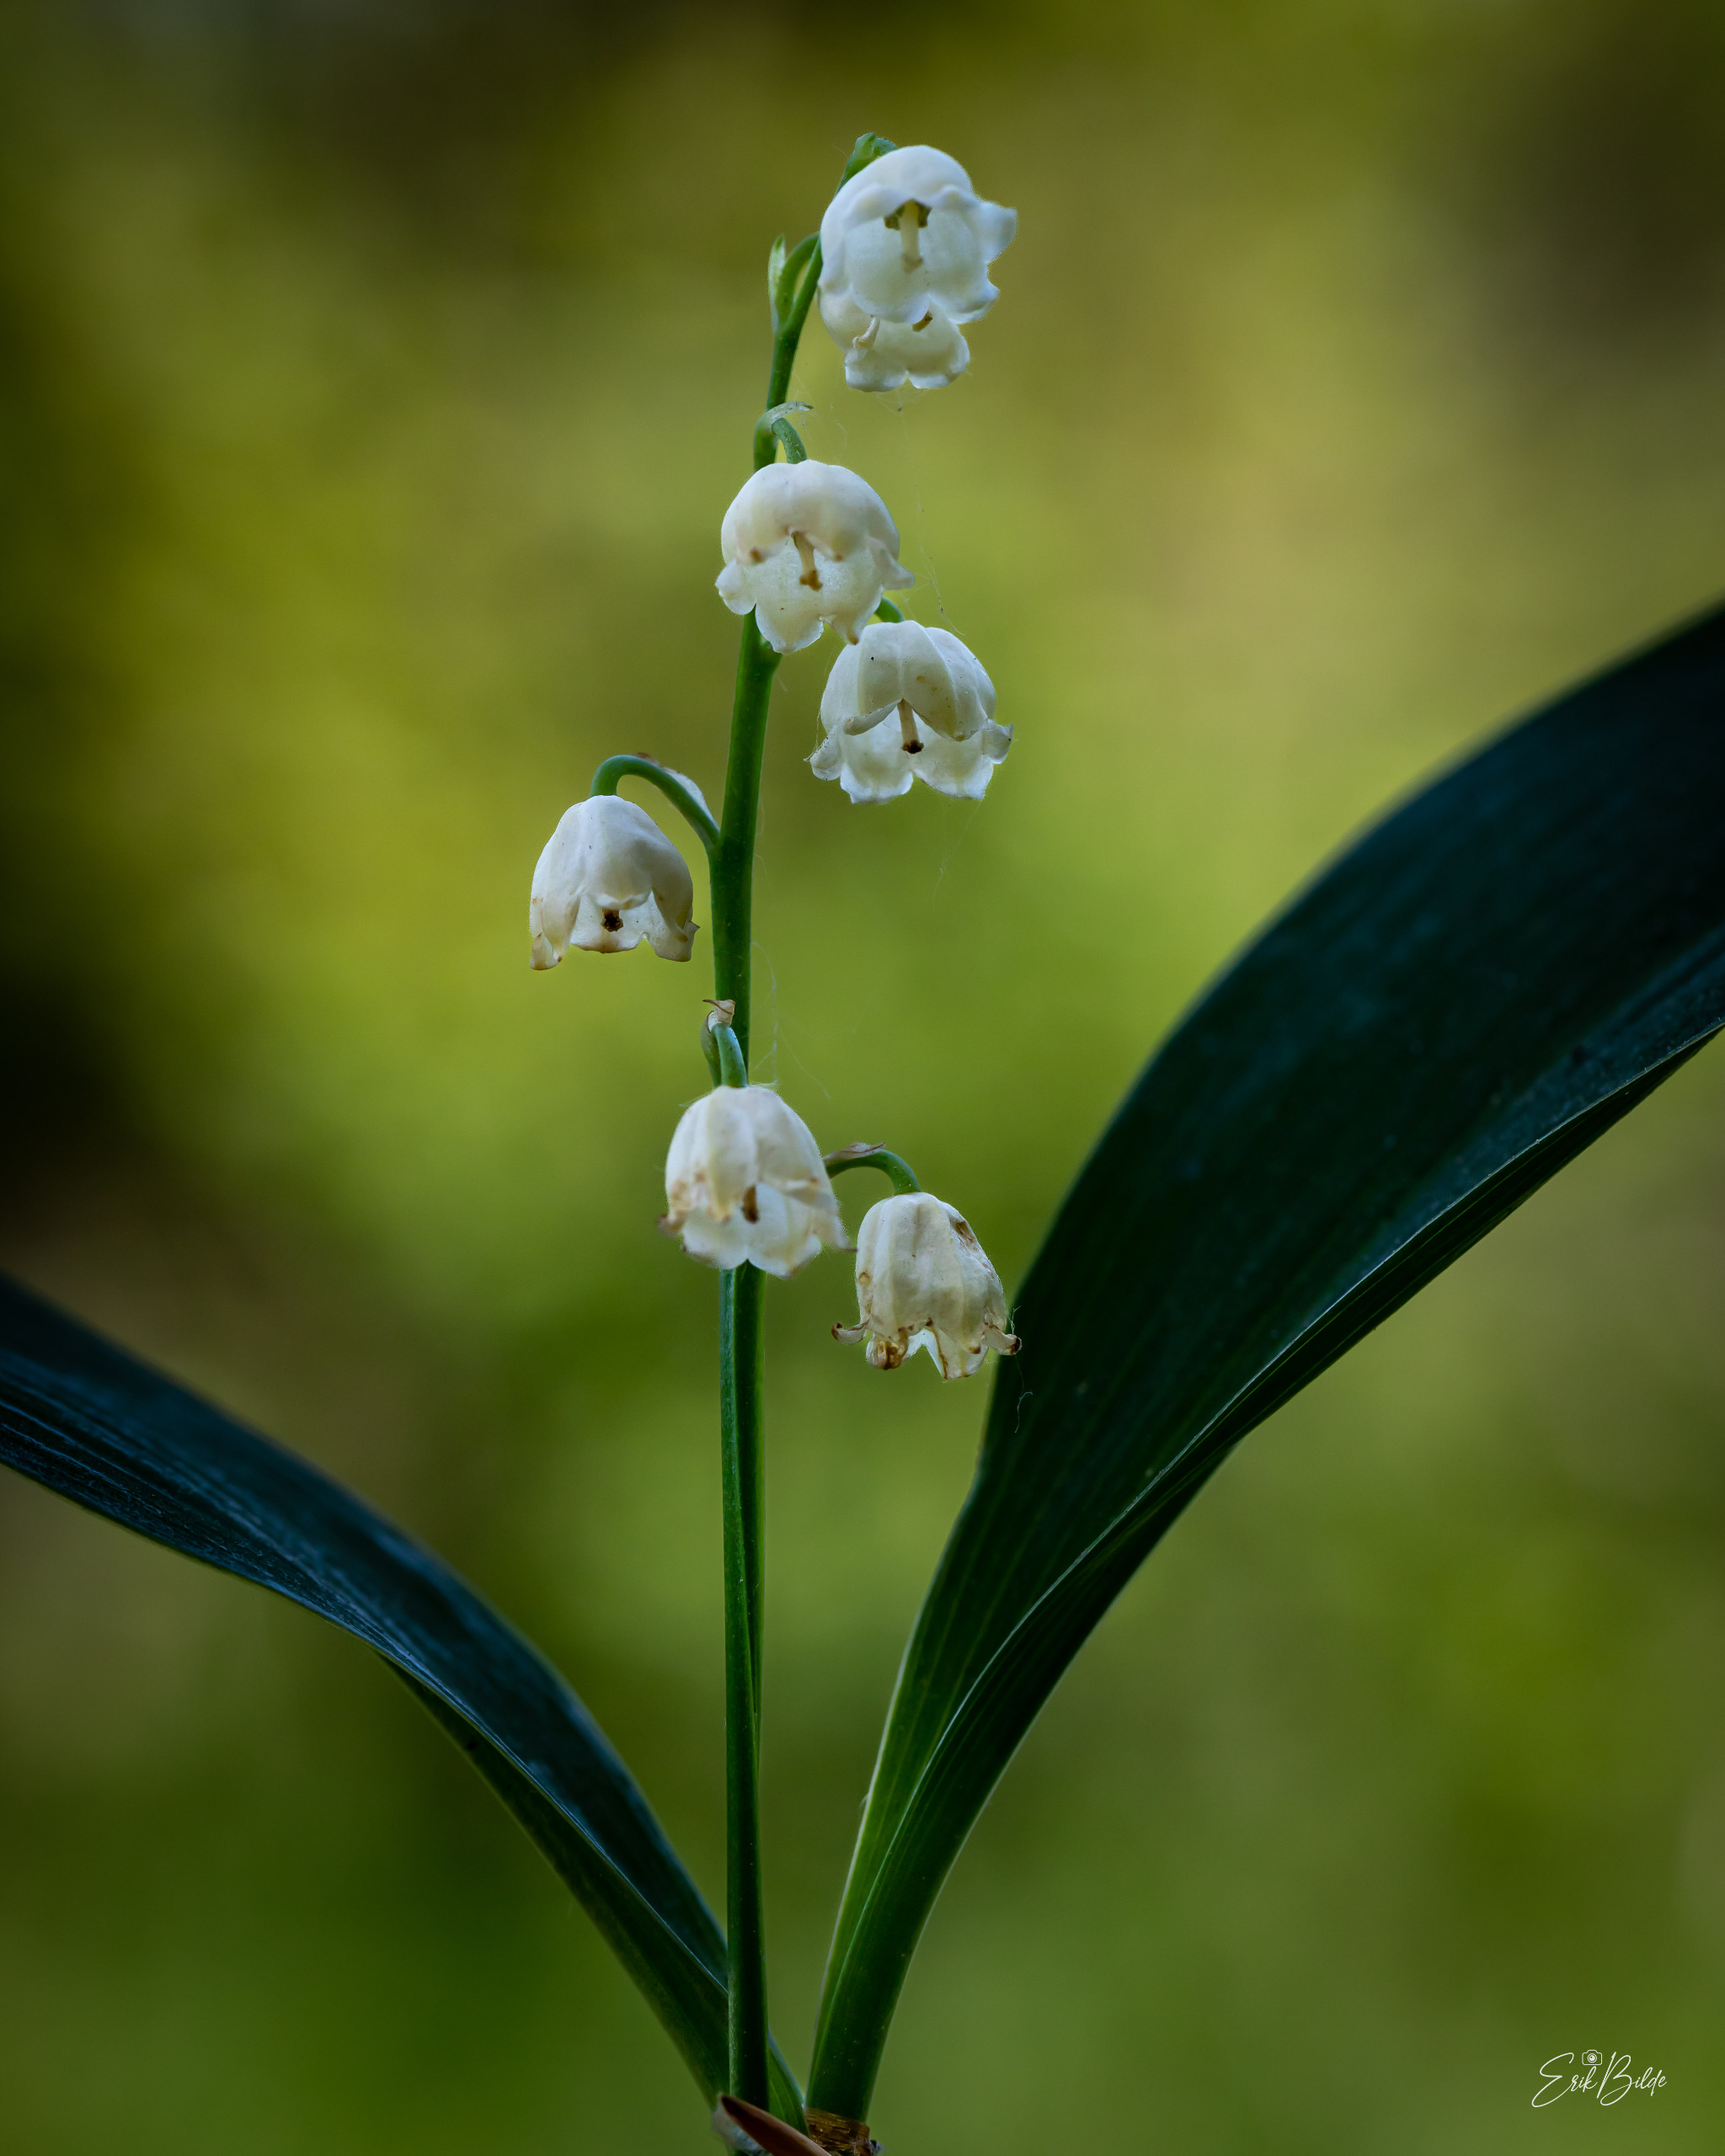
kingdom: Plantae
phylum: Tracheophyta
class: Liliopsida
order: Asparagales
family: Asparagaceae
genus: Convallaria
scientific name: Convallaria majalis
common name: Liljekonval
